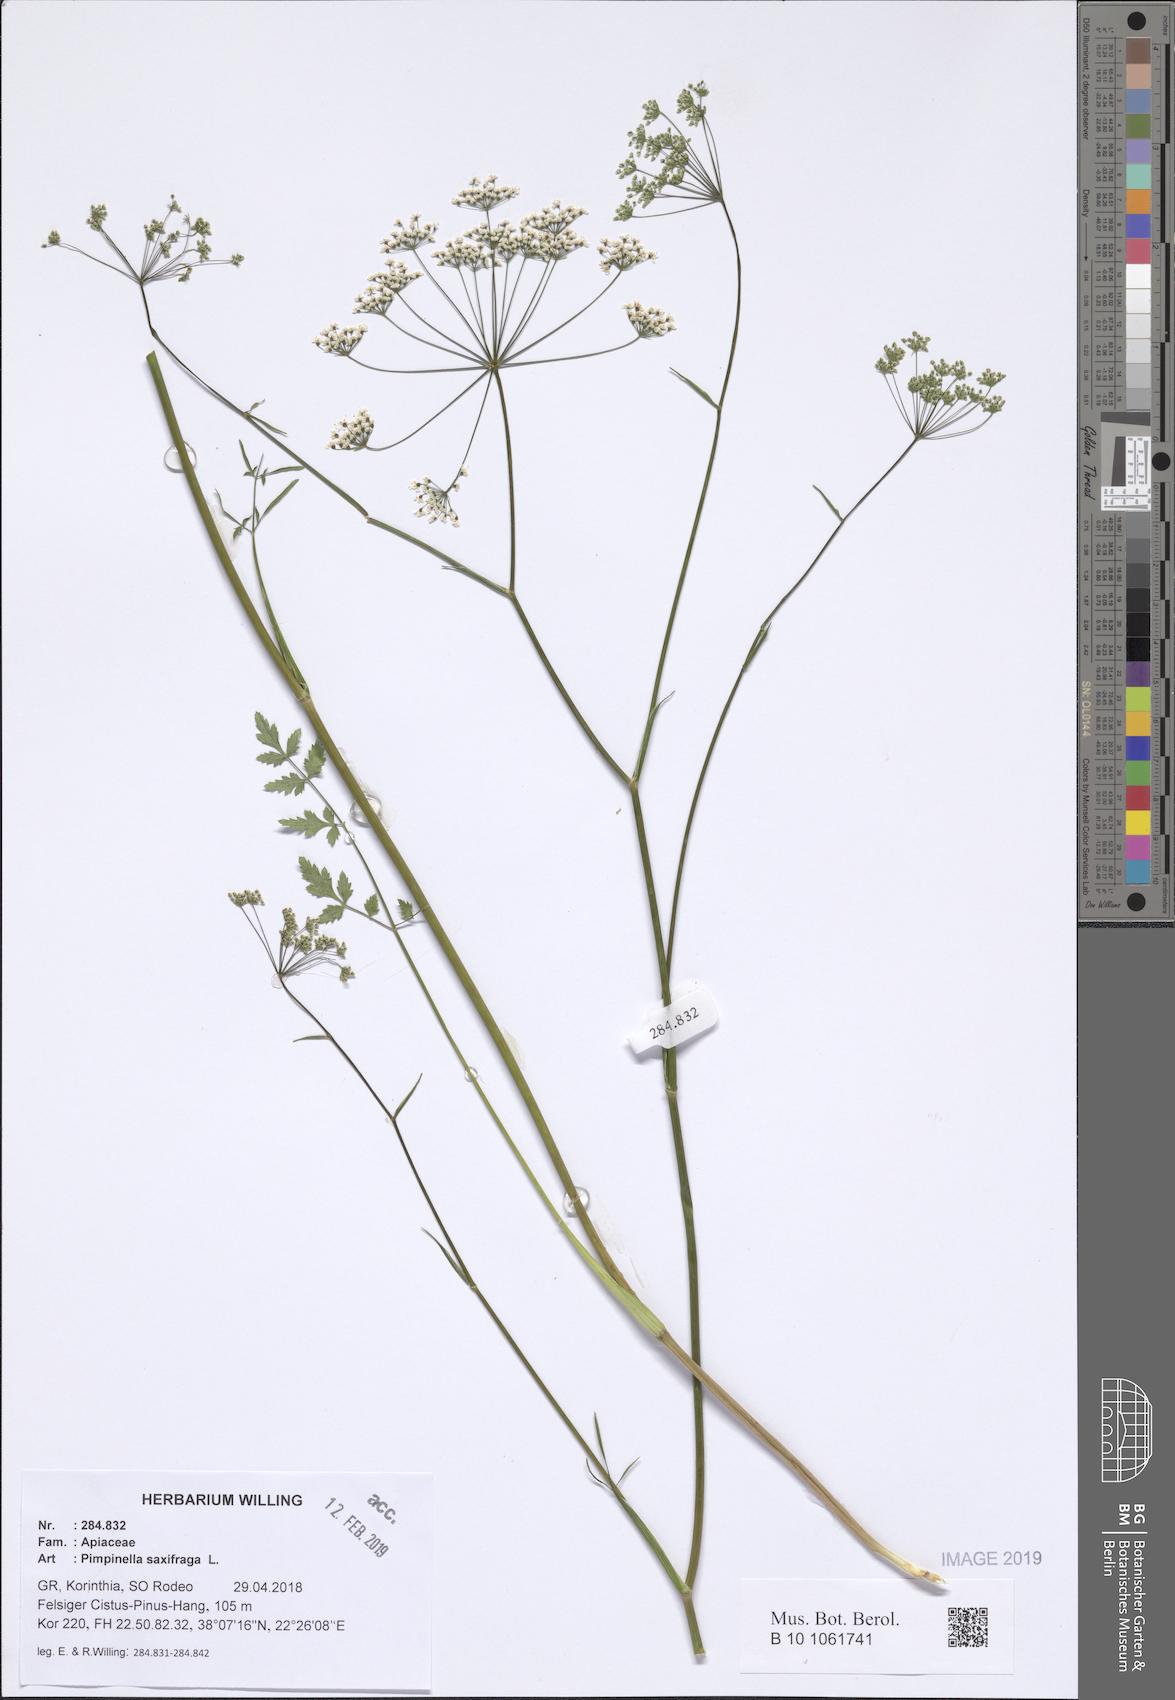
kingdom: Plantae
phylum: Tracheophyta
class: Magnoliopsida
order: Apiales
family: Apiaceae
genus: Pimpinella
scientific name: Pimpinella saxifraga
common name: Burnet-saxifrage
